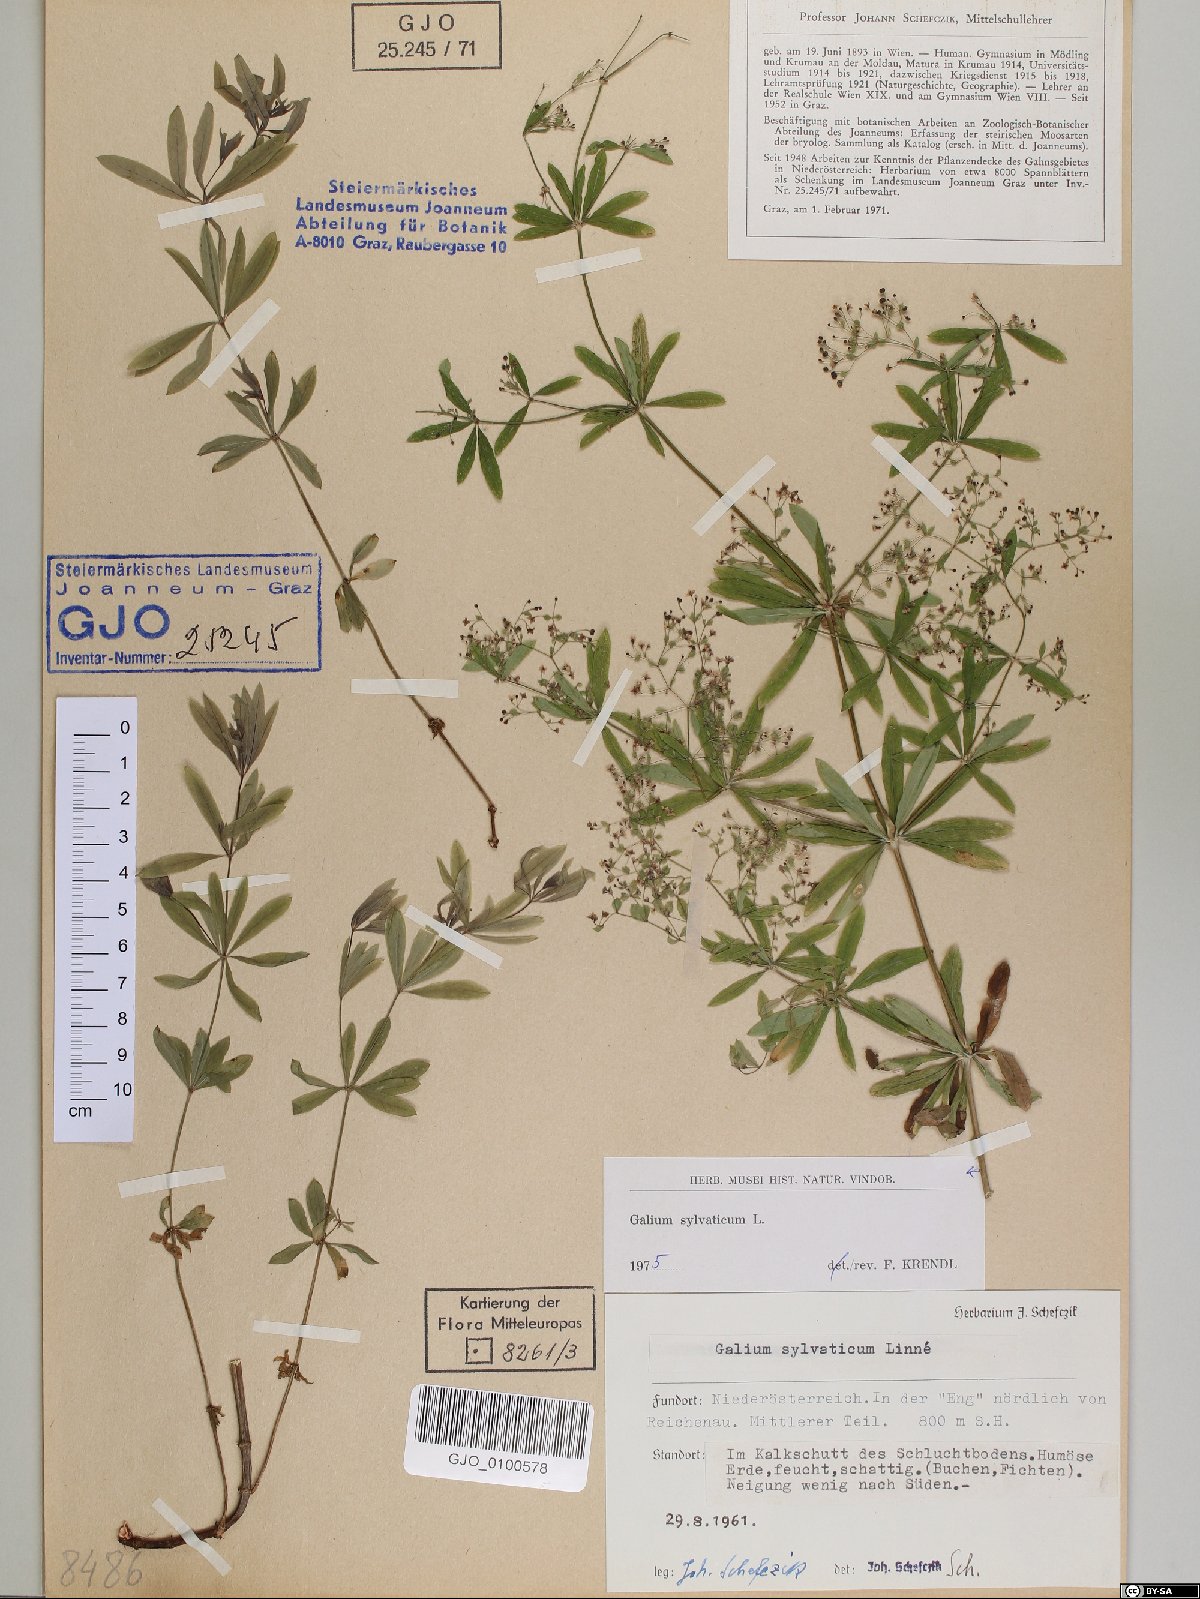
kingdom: Plantae
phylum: Tracheophyta
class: Magnoliopsida
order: Gentianales
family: Rubiaceae
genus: Galium
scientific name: Galium sylvaticum
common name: Wood bedstraw
